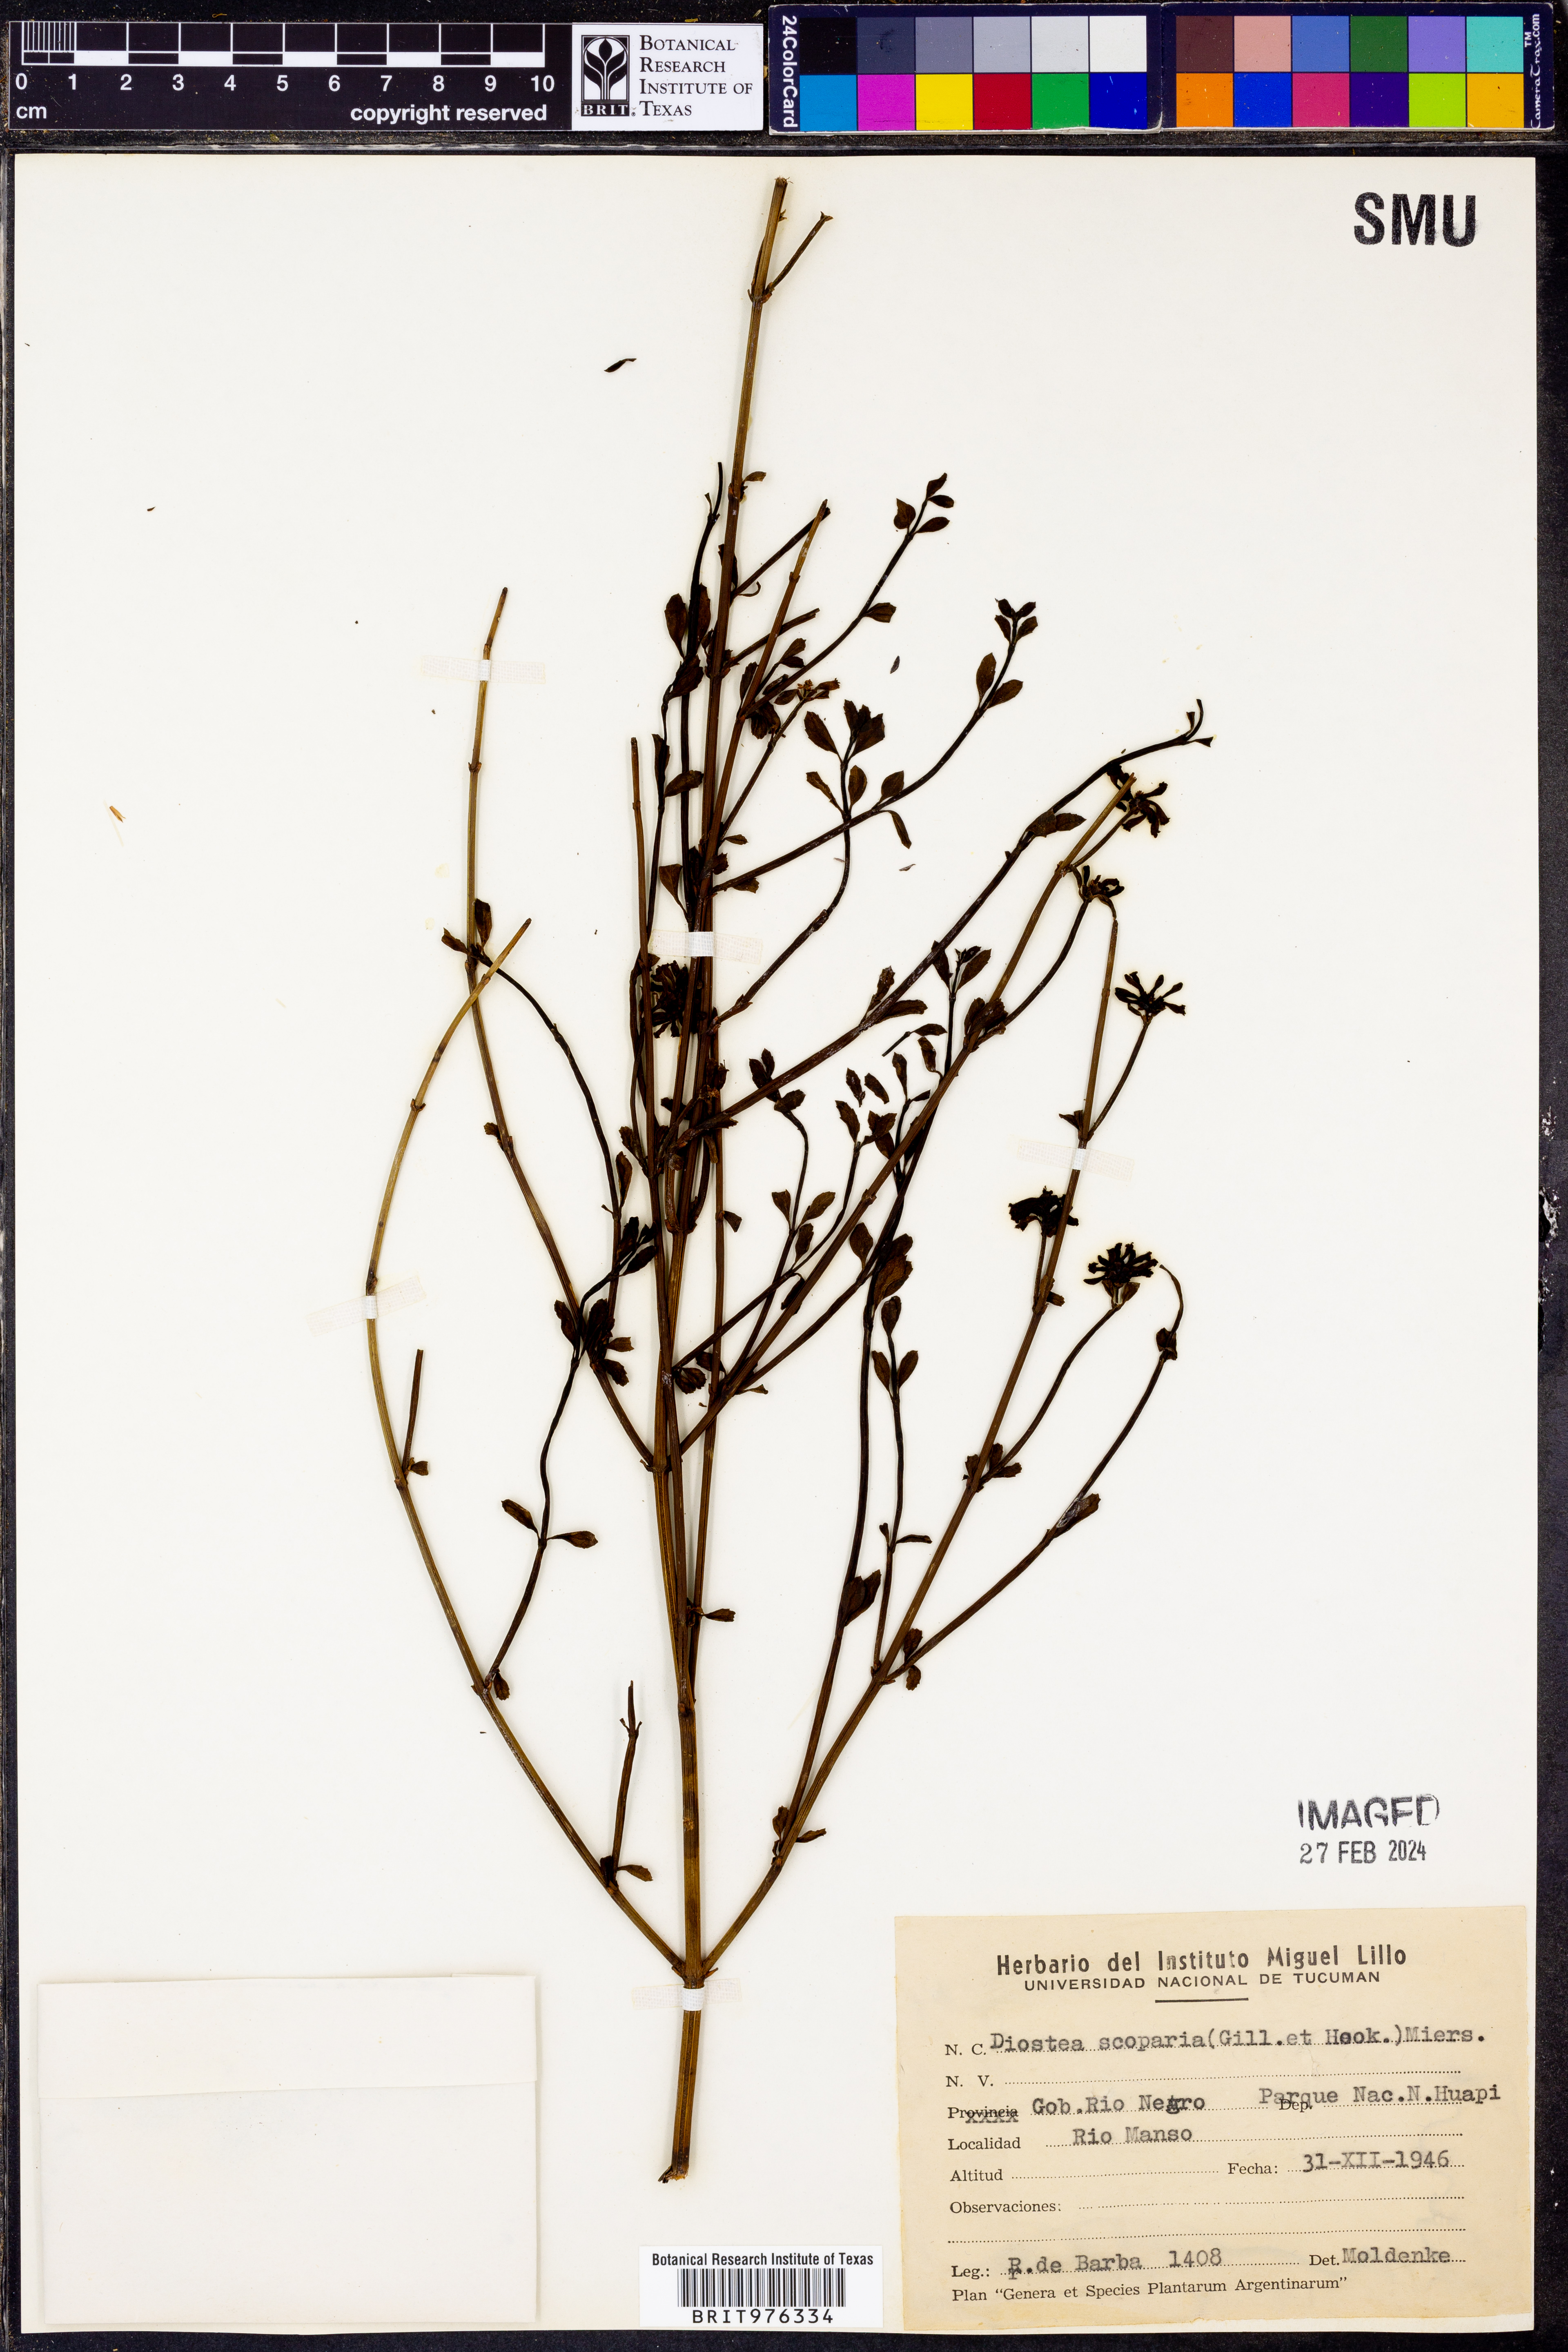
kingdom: Plantae
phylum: Tracheophyta
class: Magnoliopsida
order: Lamiales
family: Verbenaceae
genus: Diostea
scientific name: Diostea
